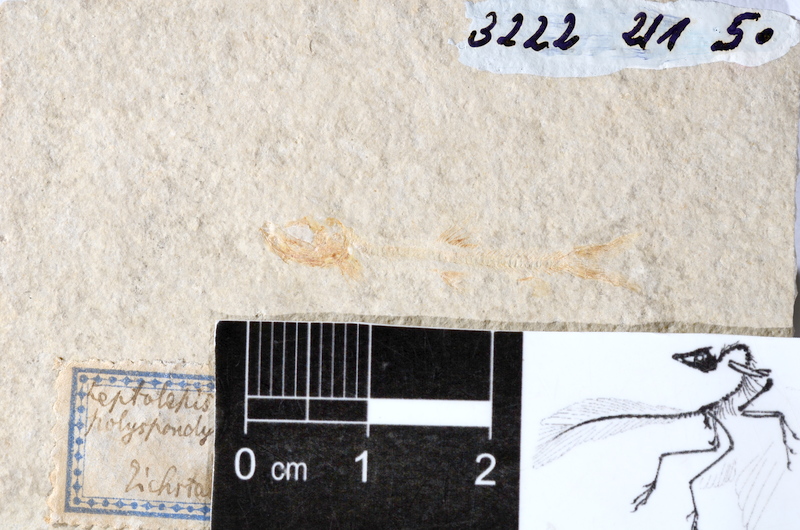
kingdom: Animalia
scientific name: Animalia
